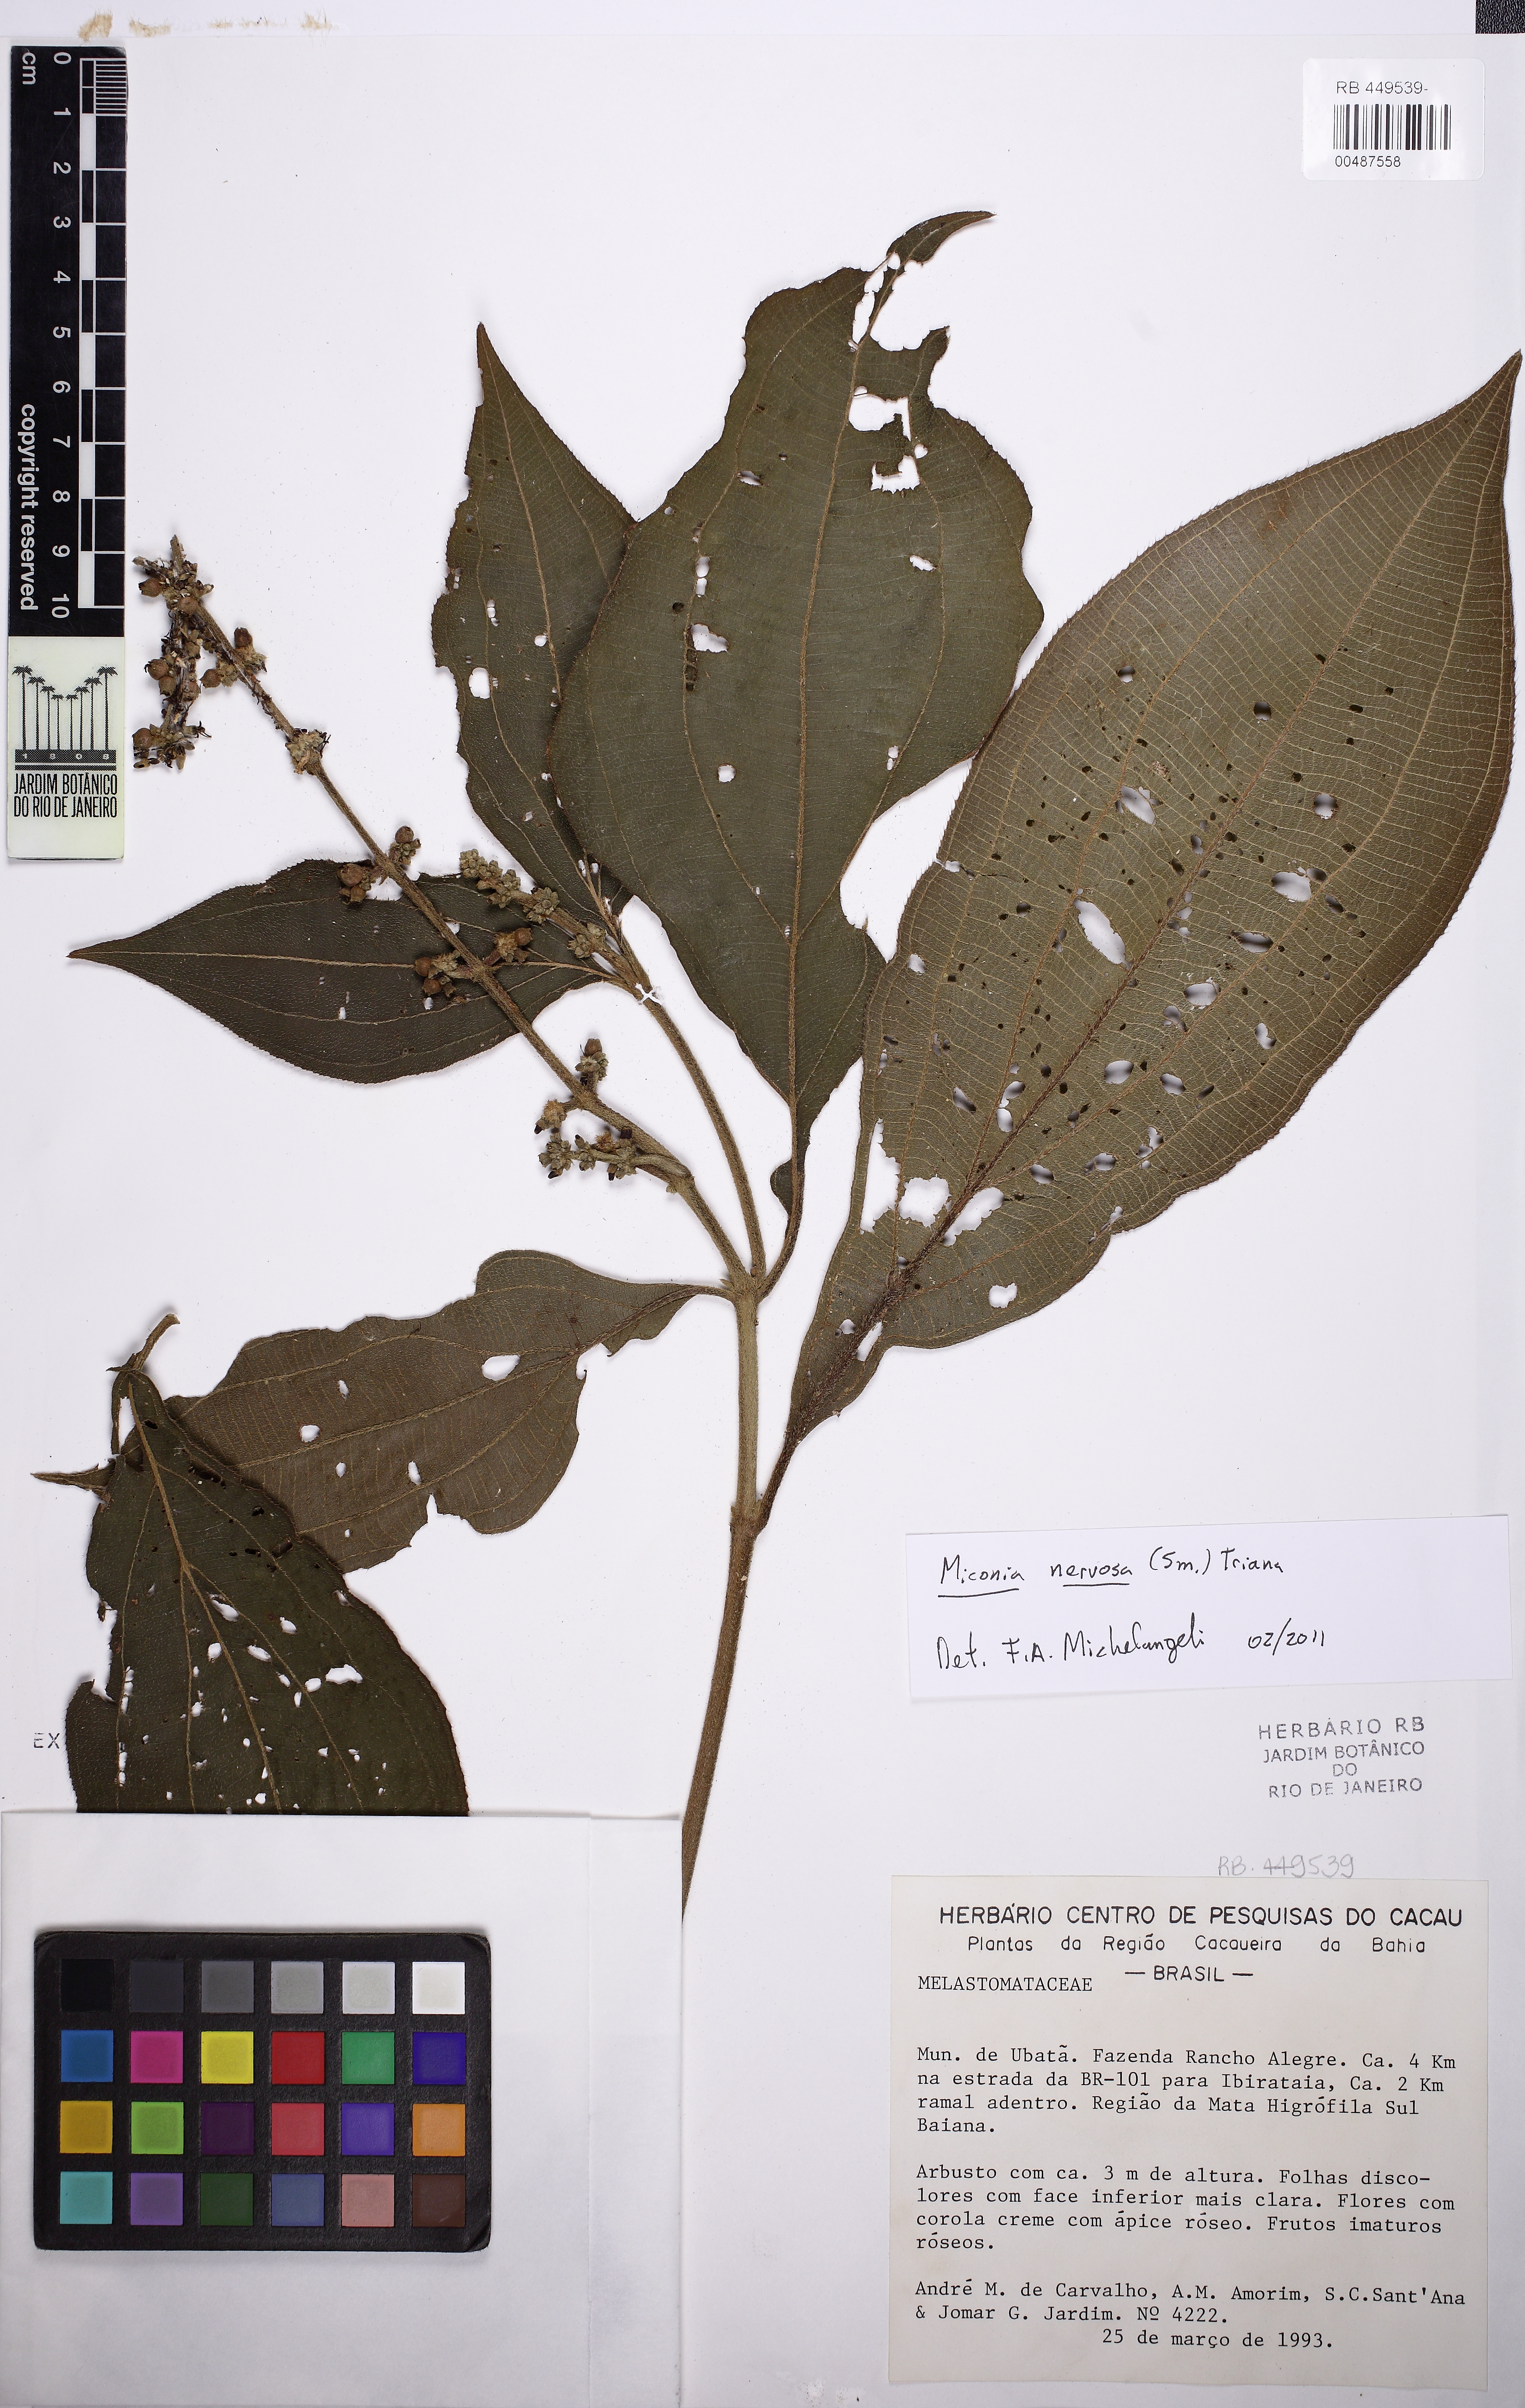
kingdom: Plantae
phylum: Tracheophyta
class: Magnoliopsida
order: Myrtales
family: Melastomataceae
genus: Miconia
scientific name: Miconia nervosa
